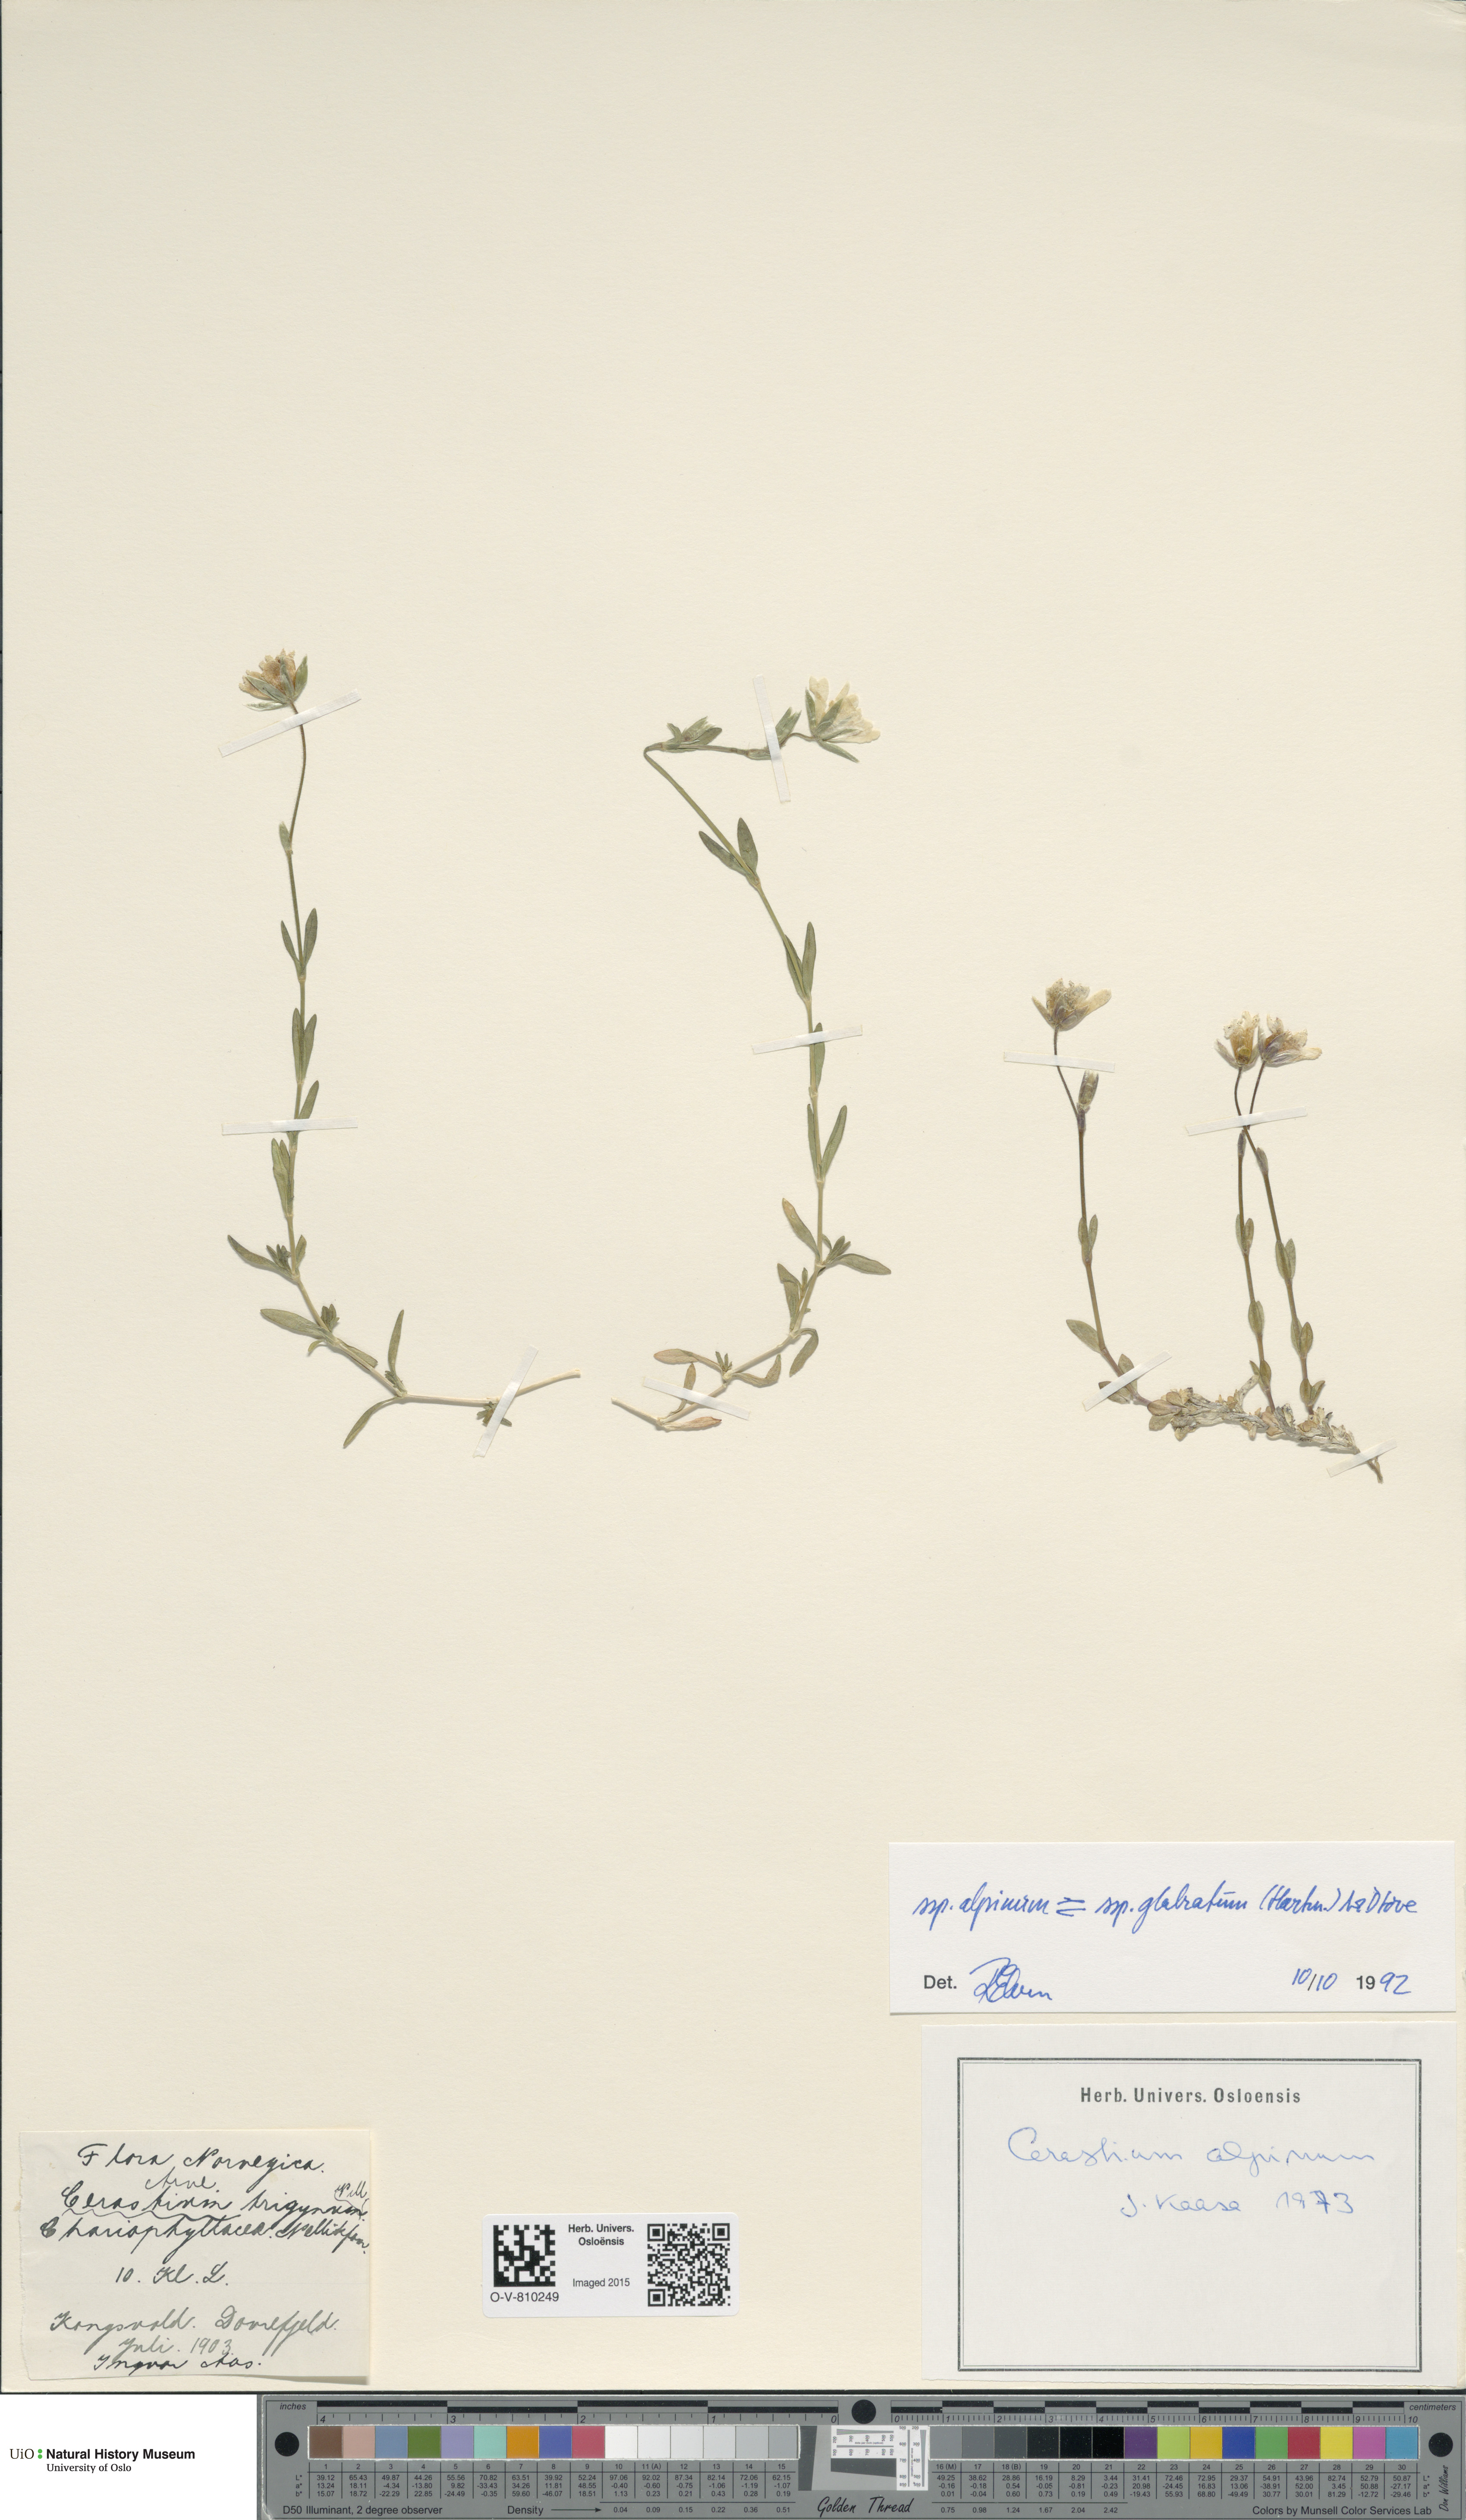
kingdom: Plantae
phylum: Tracheophyta
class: Magnoliopsida
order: Caryophyllales
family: Caryophyllaceae
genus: Cerastium
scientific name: Cerastium
